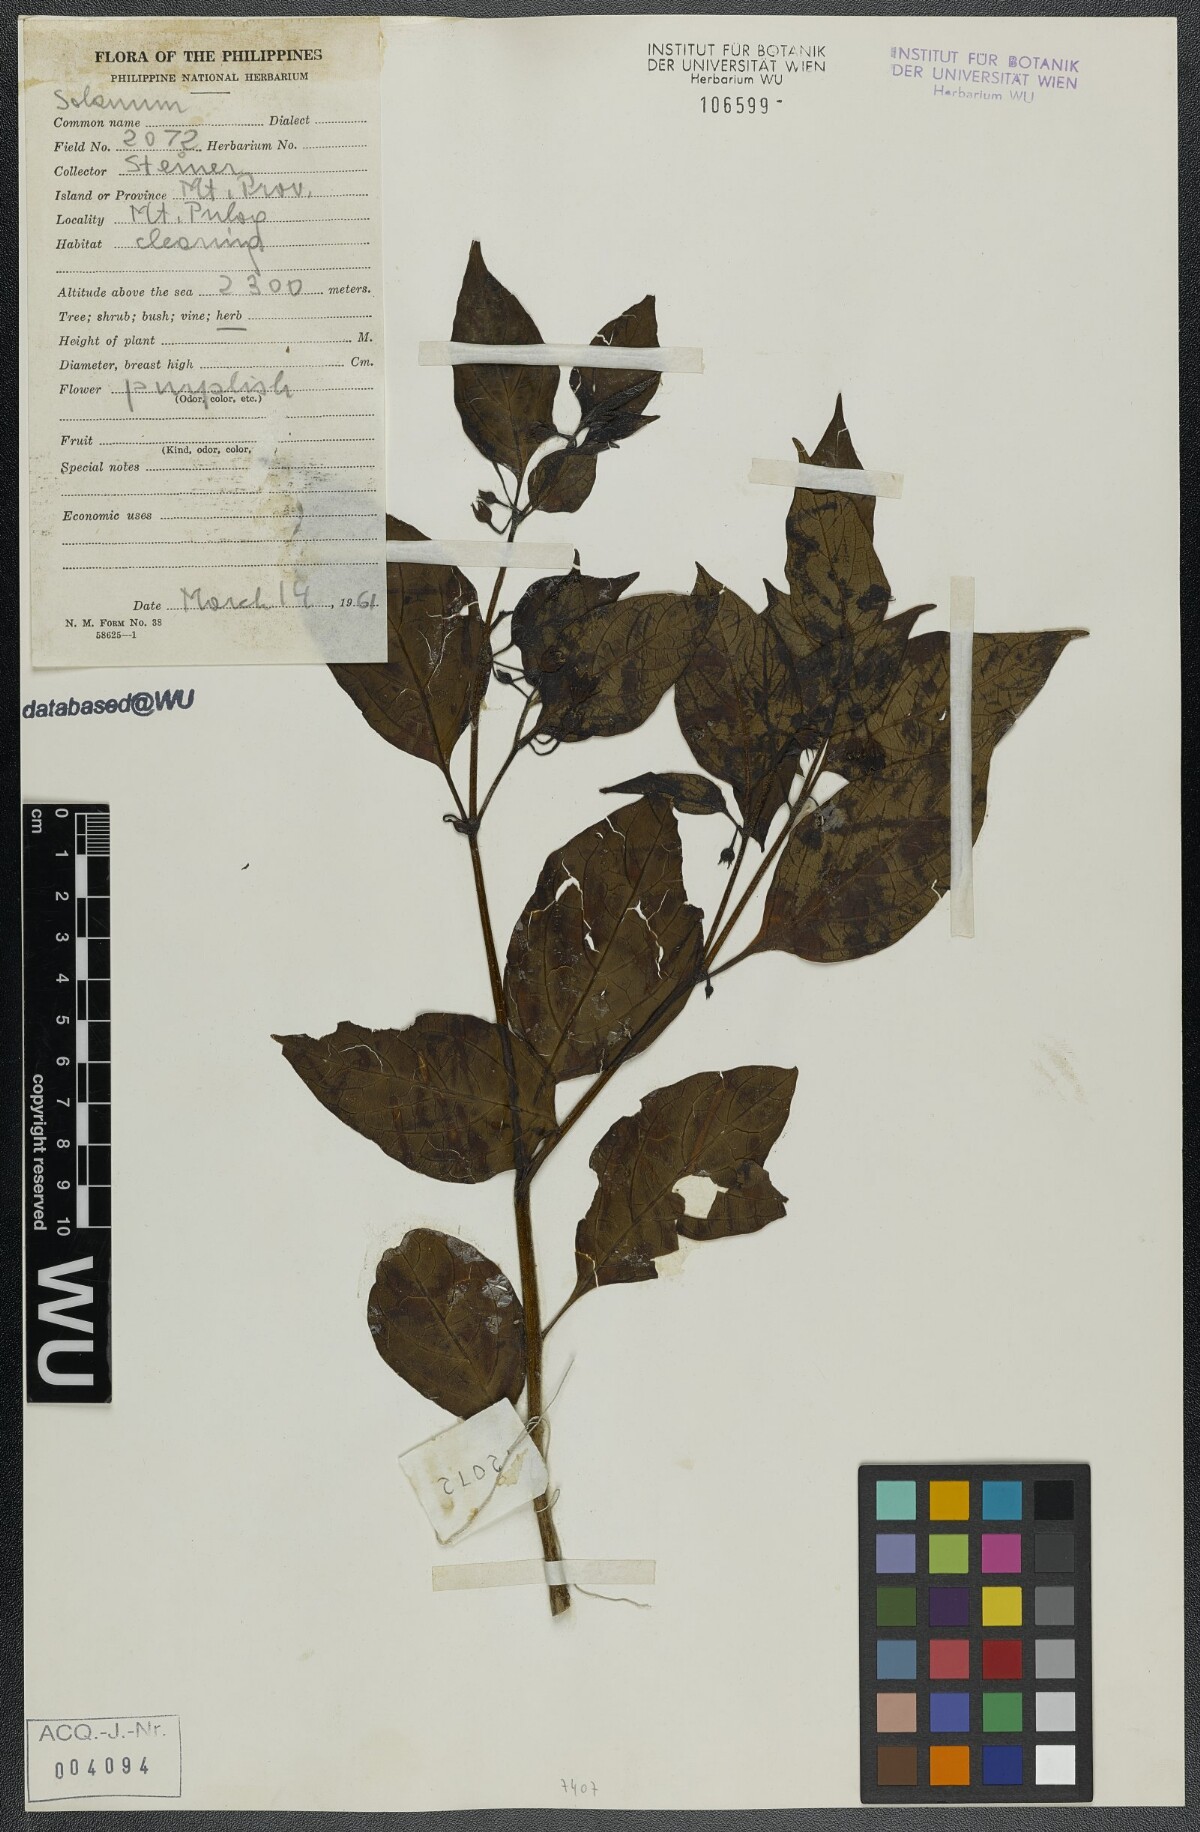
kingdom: Plantae
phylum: Tracheophyta
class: Magnoliopsida
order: Solanales
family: Solanaceae
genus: Solanum
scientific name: Solanum
